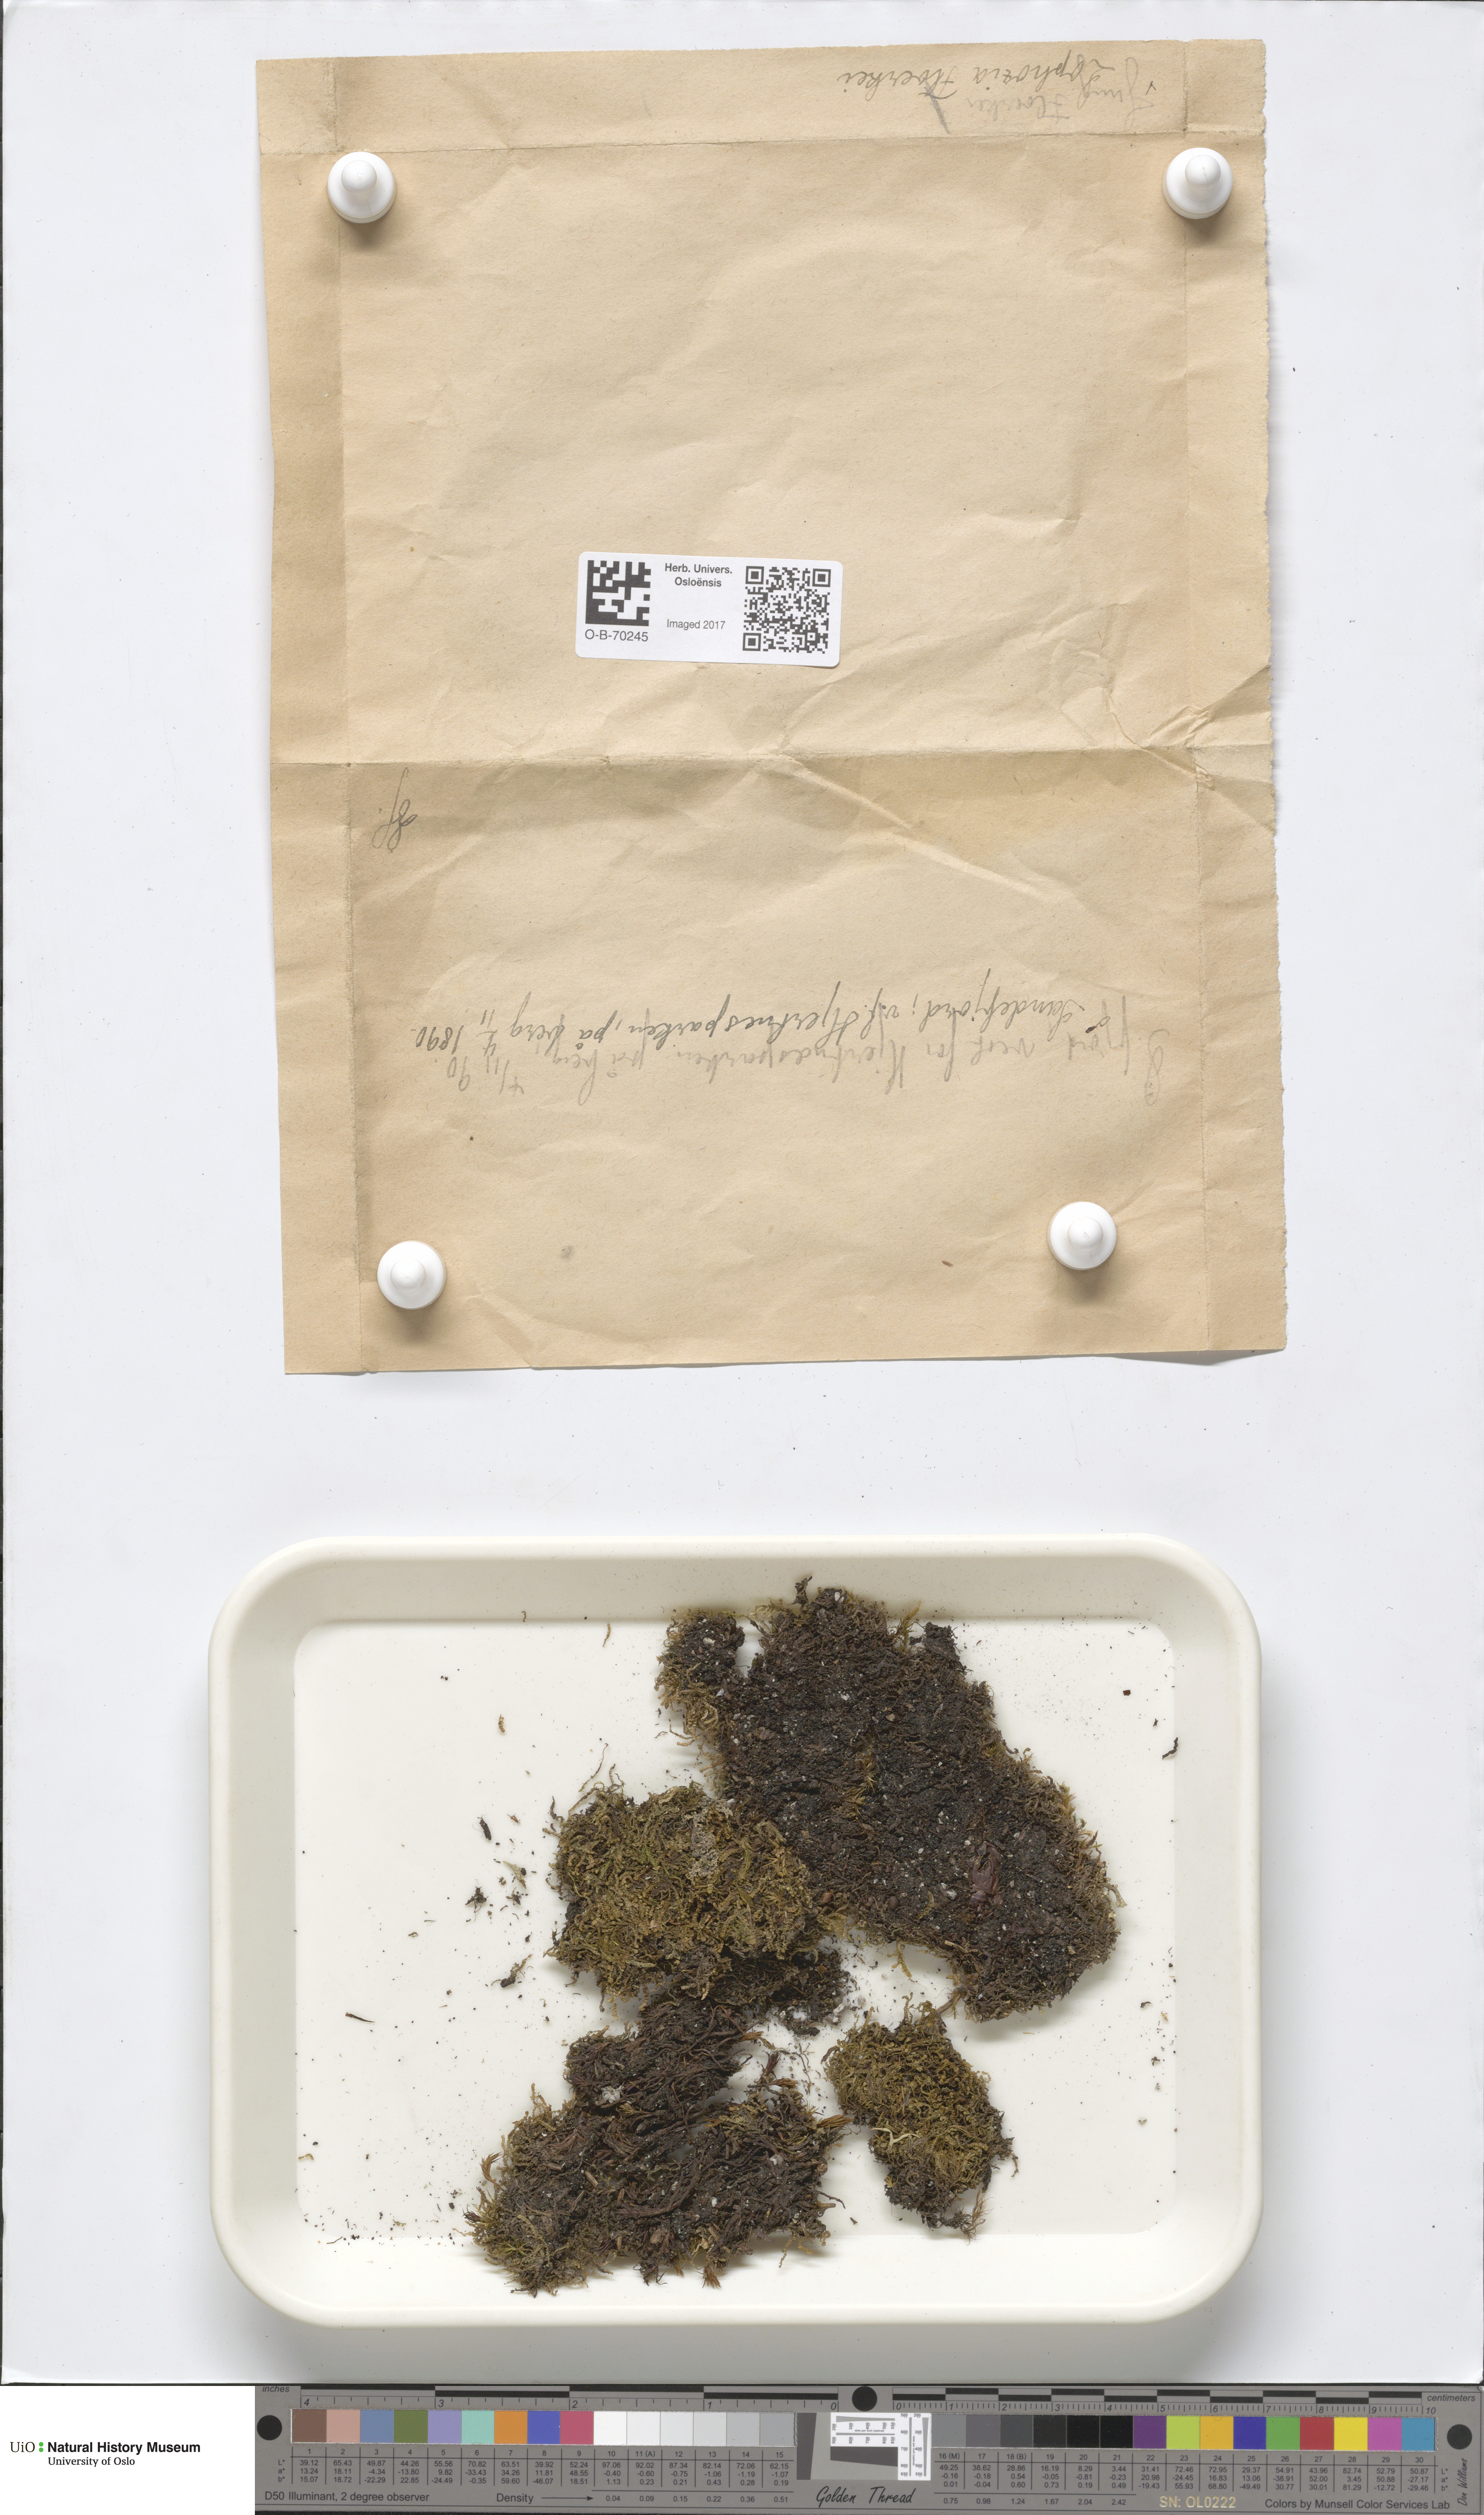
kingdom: Plantae
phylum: Marchantiophyta
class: Jungermanniopsida
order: Jungermanniales
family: Anastrophyllaceae
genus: Neoorthocaulis
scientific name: Neoorthocaulis floerkei
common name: Floerke's barbilophozia
